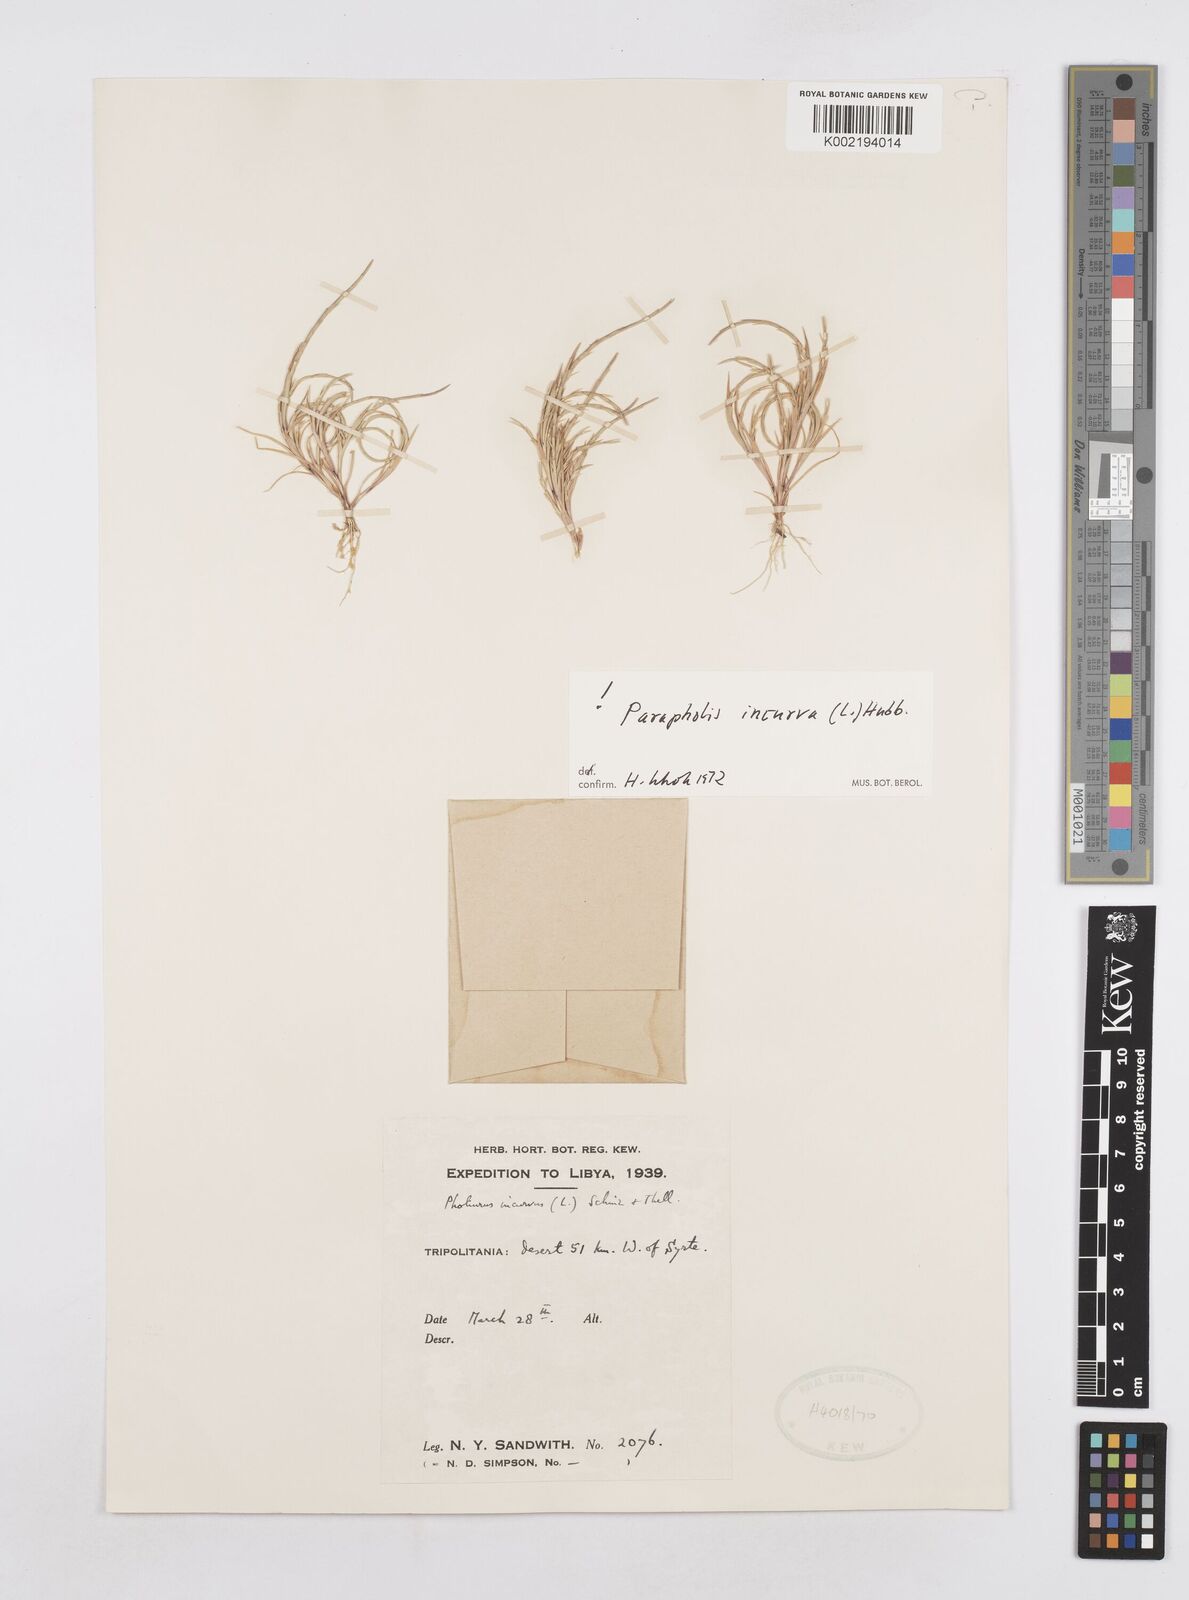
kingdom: Plantae
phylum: Tracheophyta
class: Liliopsida
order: Poales
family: Poaceae
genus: Parapholis
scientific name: Parapholis incurva
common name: Curved sicklegrass
